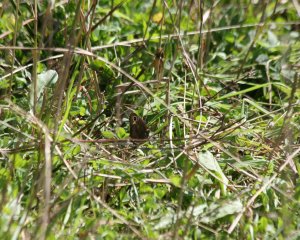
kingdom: Animalia
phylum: Arthropoda
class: Insecta
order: Lepidoptera
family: Nymphalidae
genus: Cercyonis
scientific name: Cercyonis pegala
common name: Common Wood-Nymph
